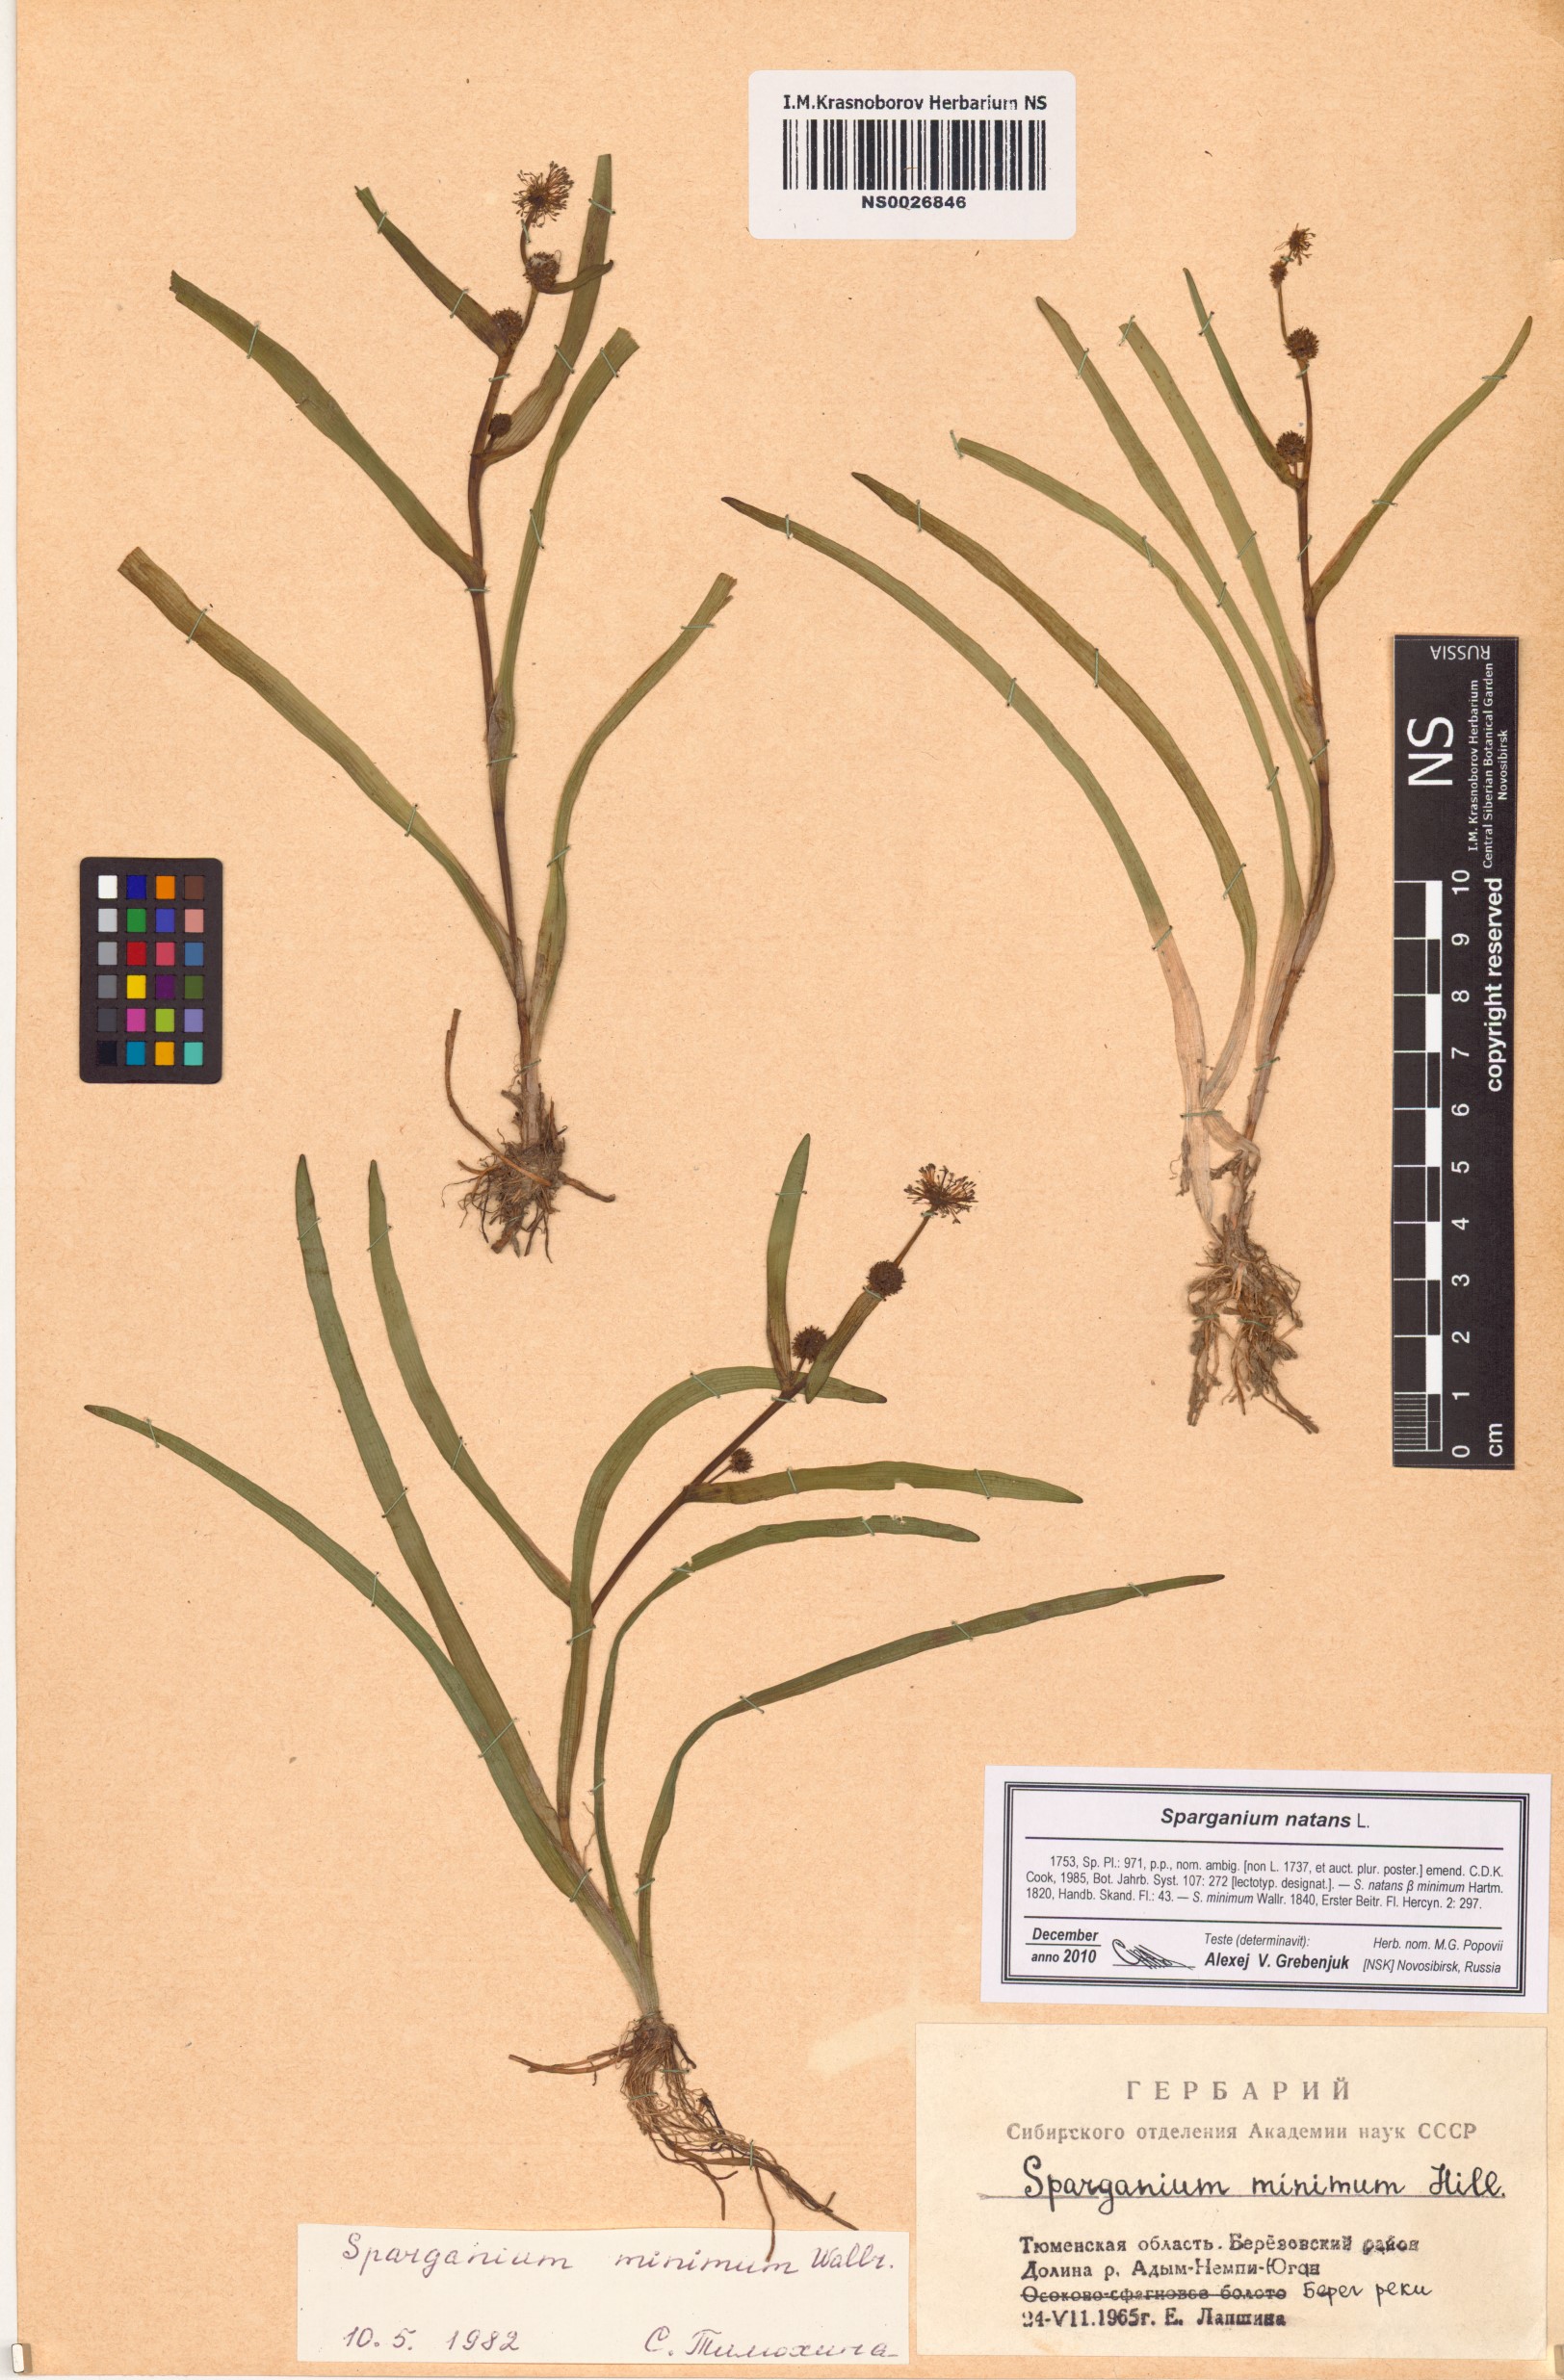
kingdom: Plantae
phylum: Tracheophyta
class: Liliopsida
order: Poales
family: Typhaceae
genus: Sparganium
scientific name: Sparganium natans
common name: Least bur-reed
